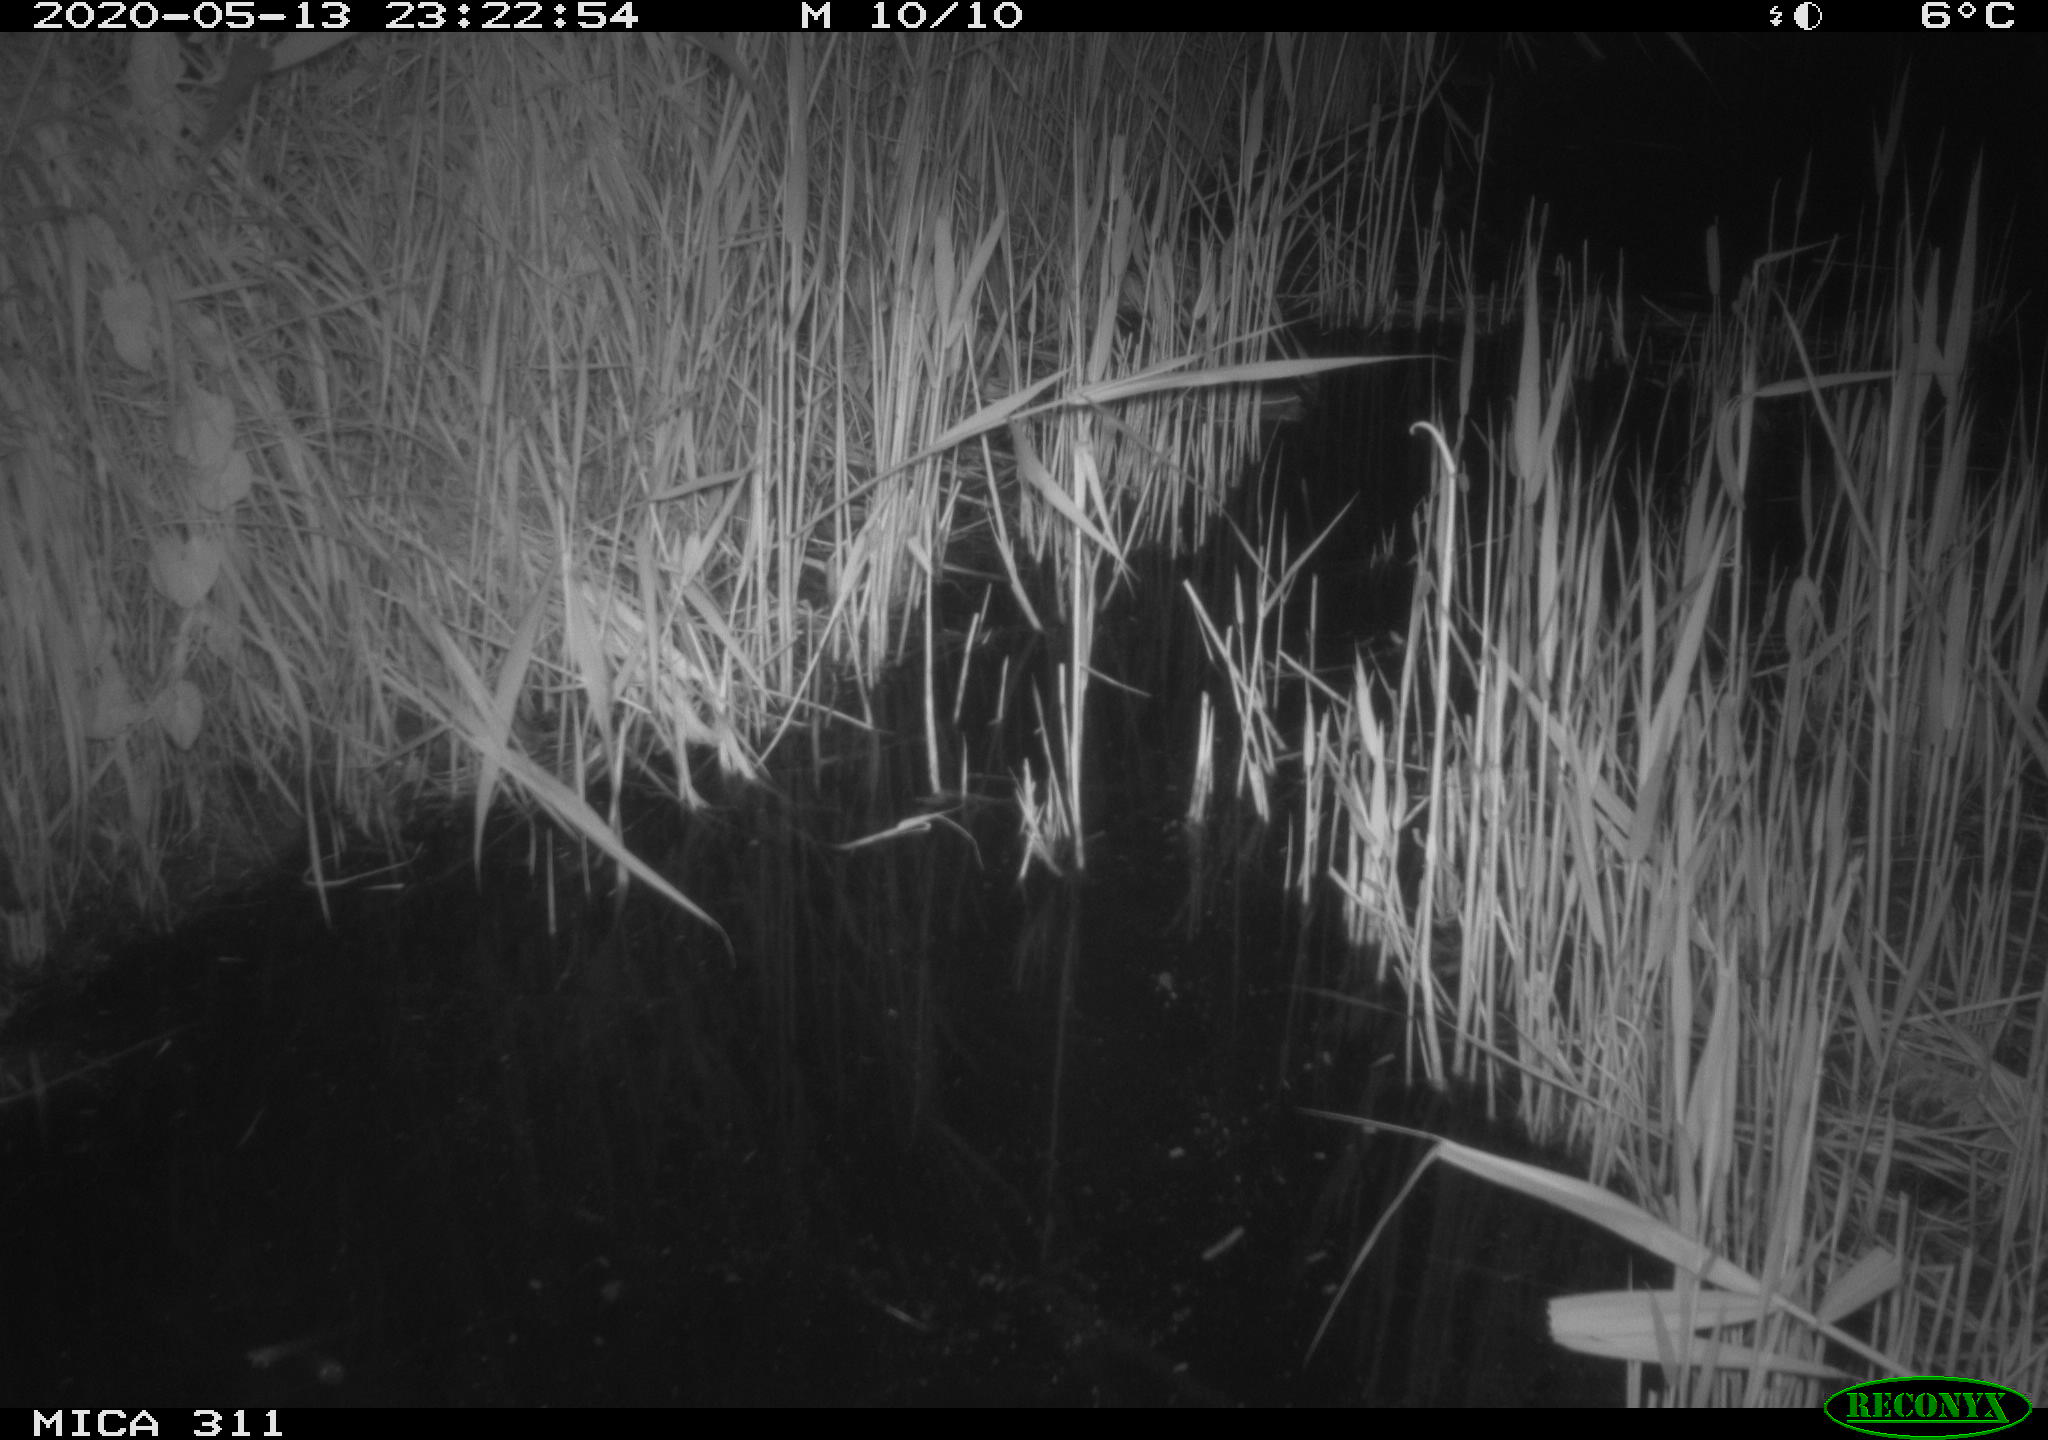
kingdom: Animalia
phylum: Chordata
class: Mammalia
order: Rodentia
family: Muridae
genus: Rattus
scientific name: Rattus norvegicus
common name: Brown rat
